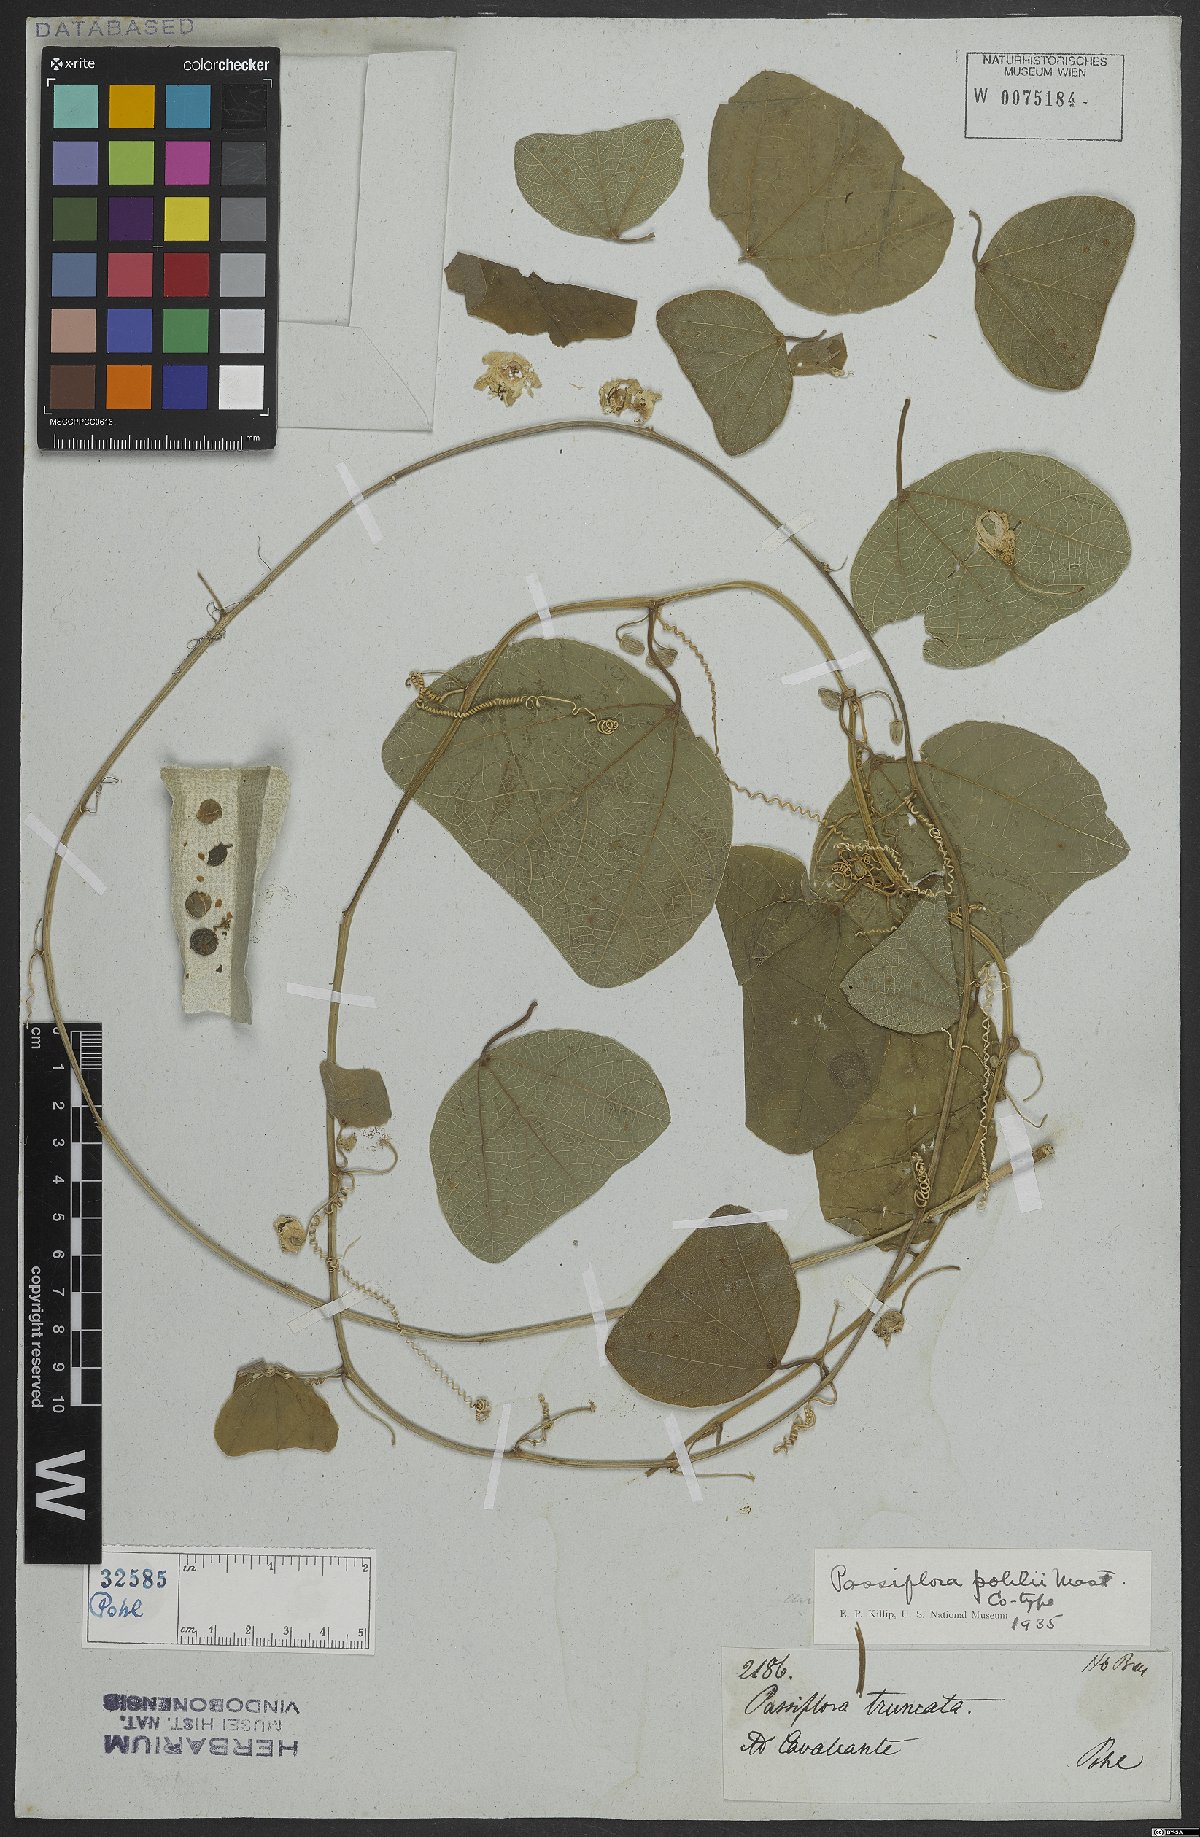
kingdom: Plantae
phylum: Tracheophyta
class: Magnoliopsida
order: Malpighiales
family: Passifloraceae
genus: Passiflora
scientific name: Passiflora pohlii
